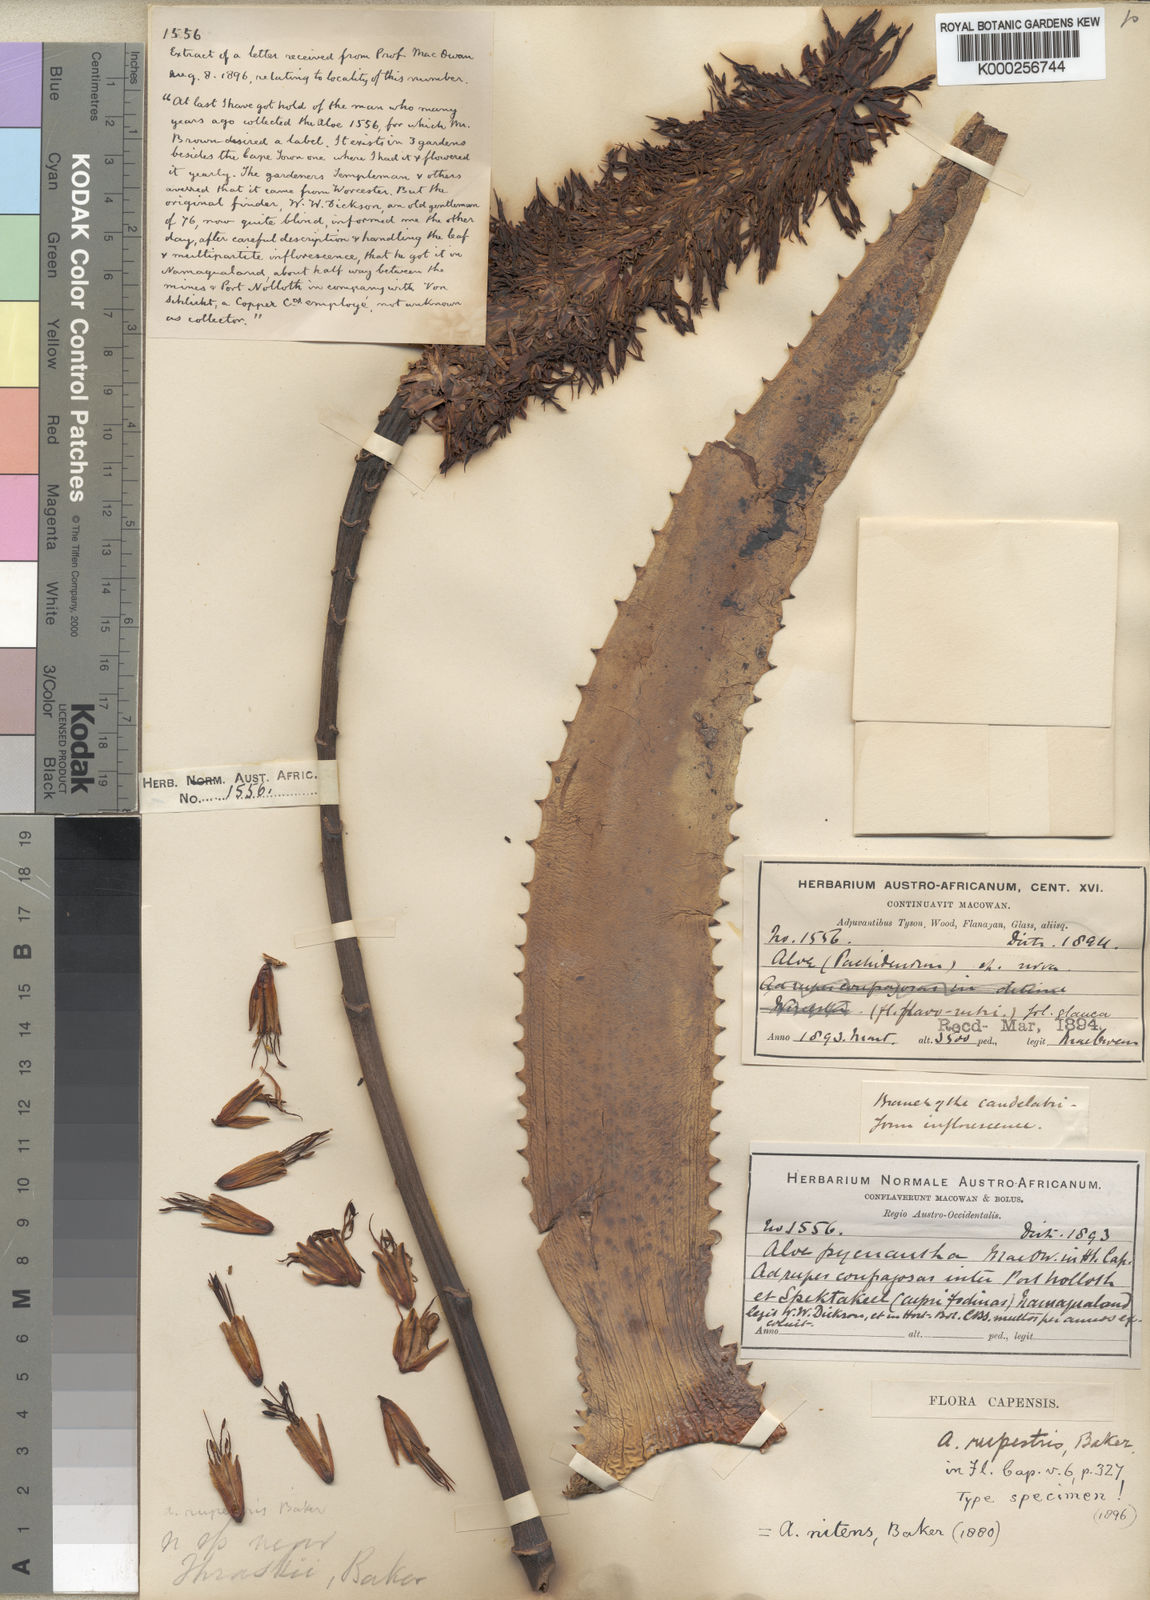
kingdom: Plantae
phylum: Tracheophyta
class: Liliopsida
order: Asparagales
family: Asphodelaceae
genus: Aloe
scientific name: Aloe rupestris
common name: Bottle-brush aloe
